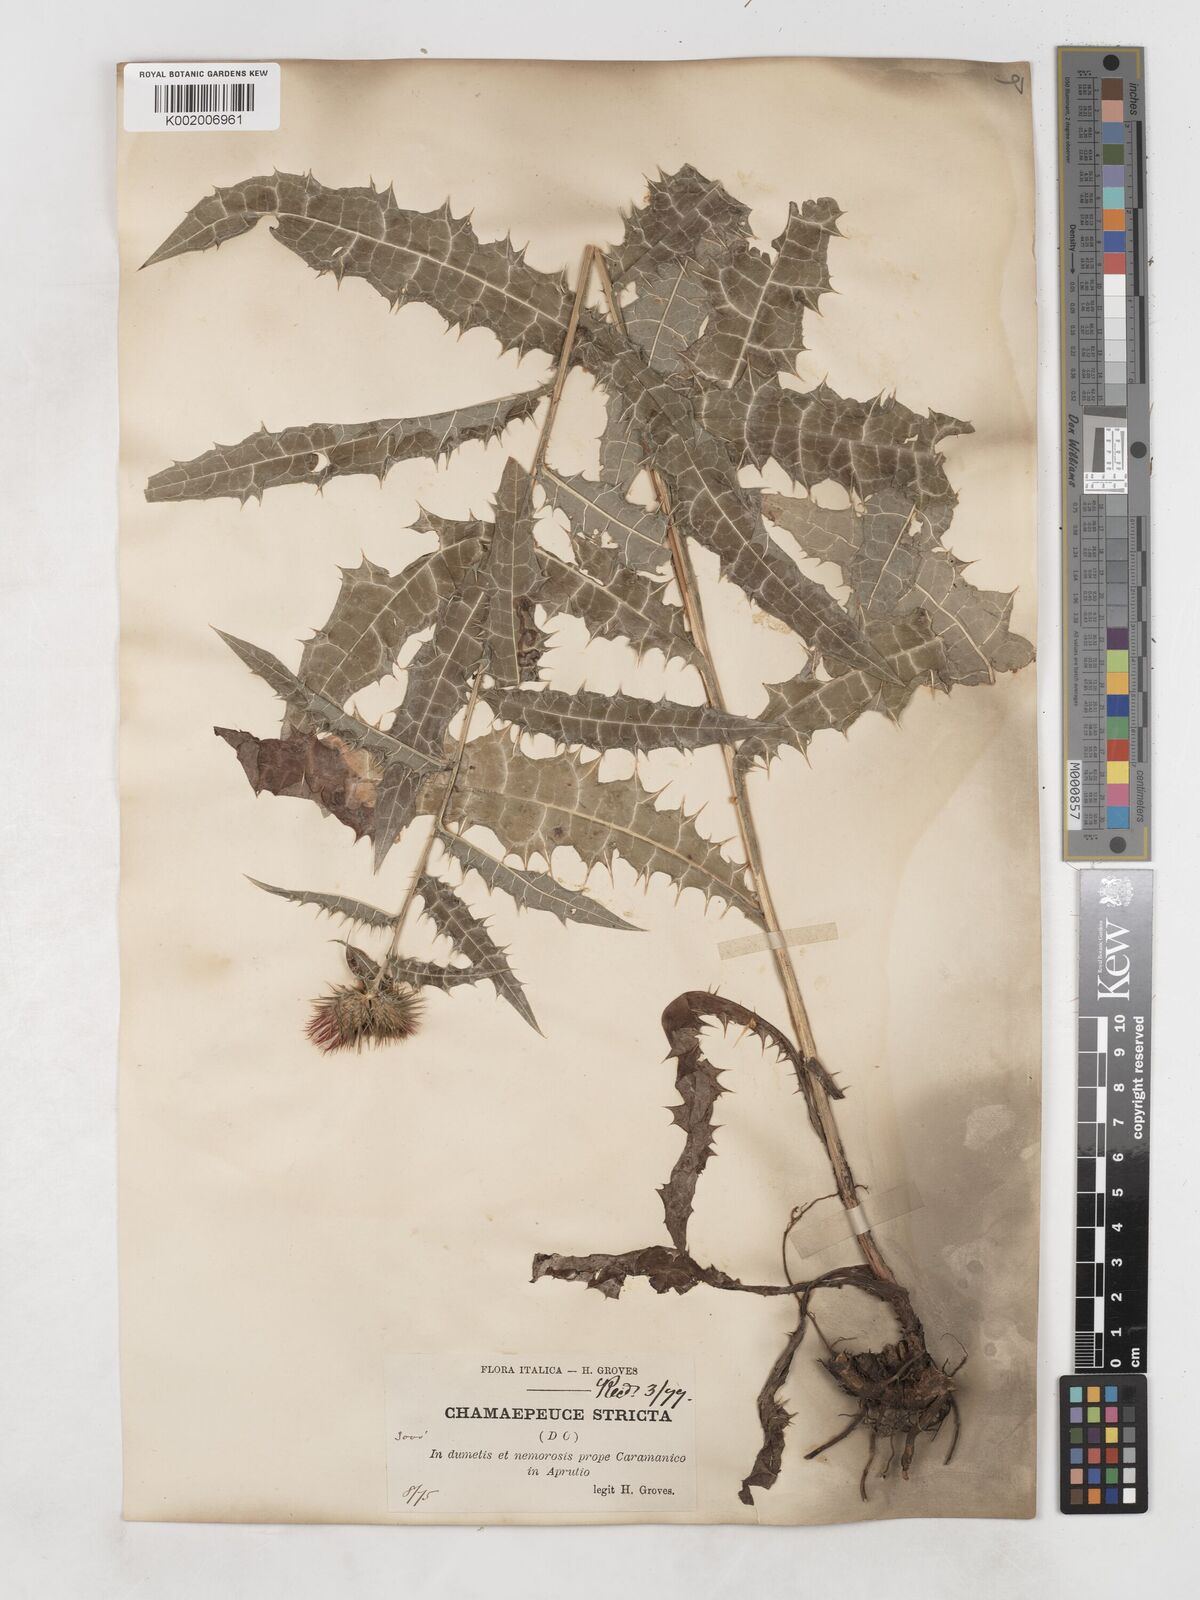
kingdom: Plantae
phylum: Tracheophyta
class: Magnoliopsida
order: Asterales
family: Asteraceae
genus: Ptilostemon
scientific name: Ptilostemon strictus
